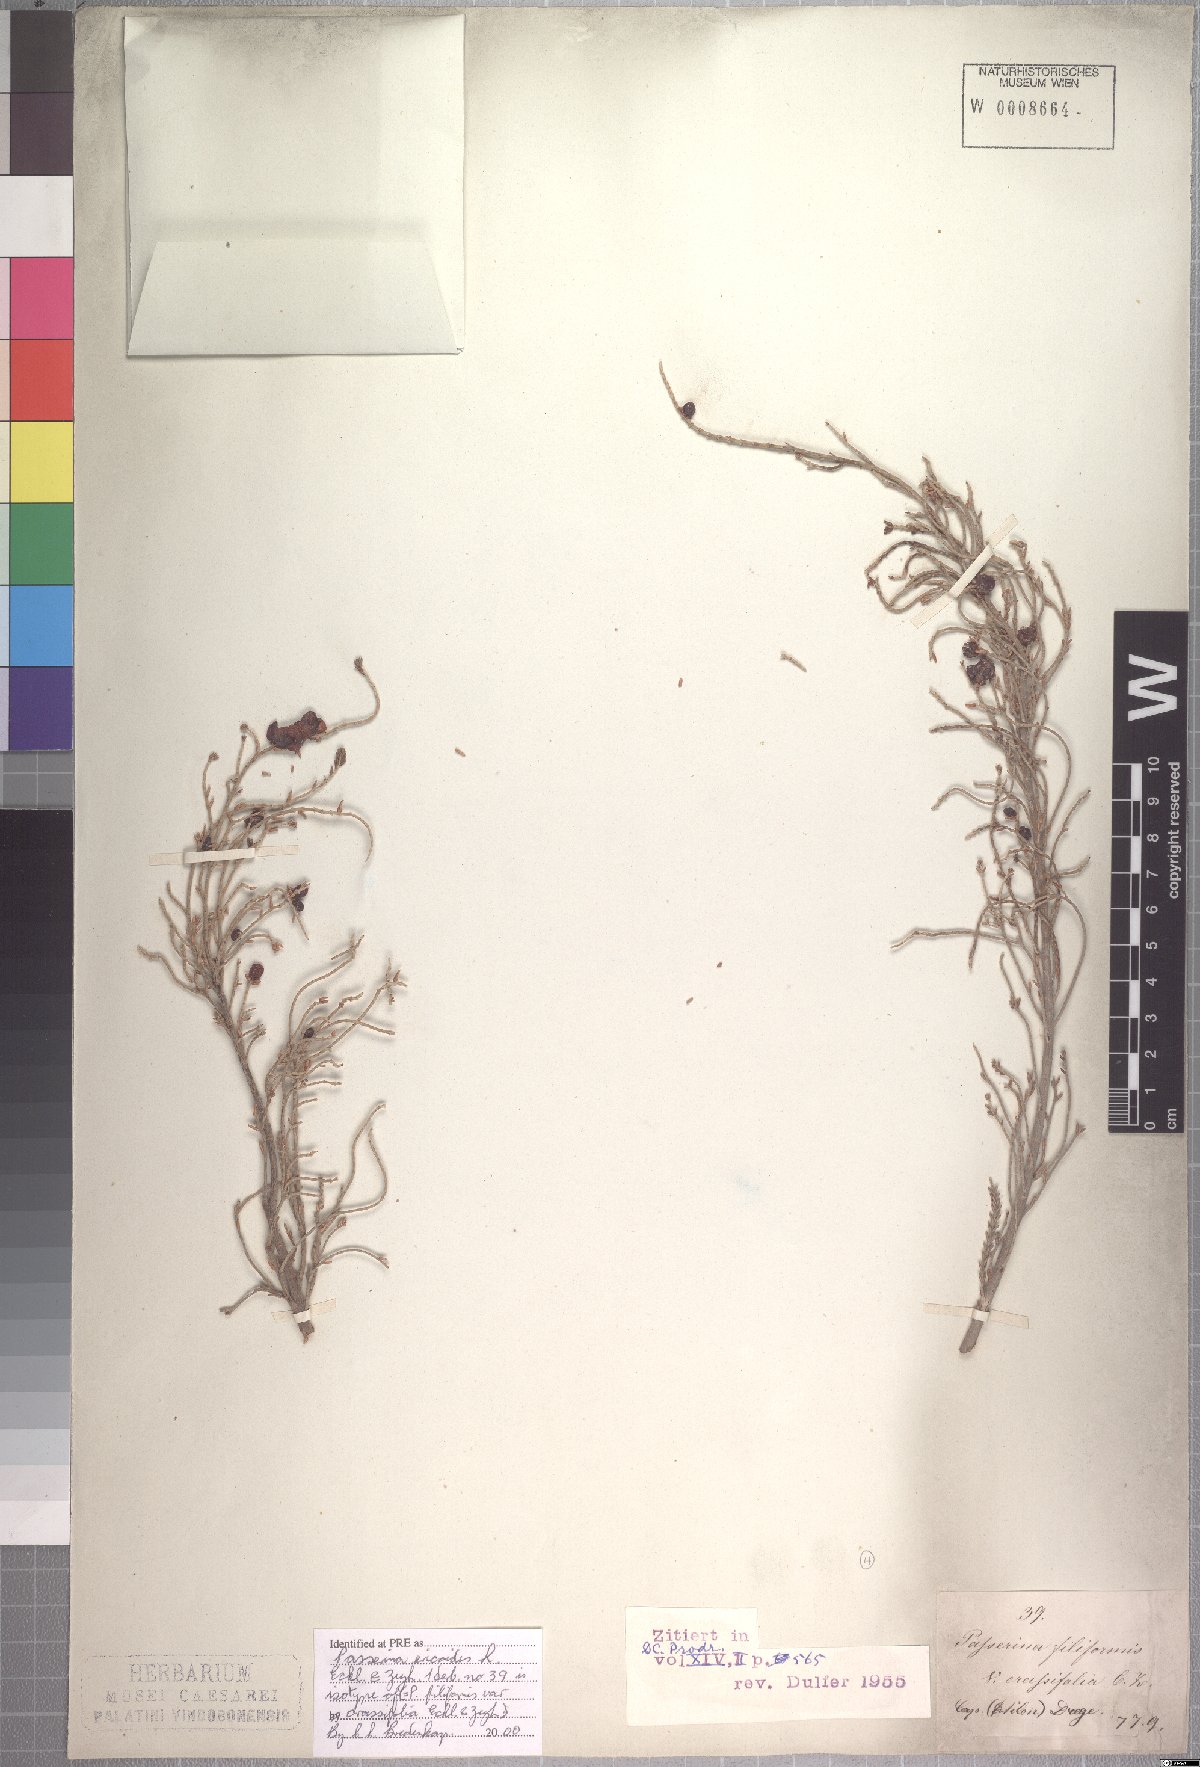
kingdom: Plantae
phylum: Tracheophyta
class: Magnoliopsida
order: Malvales
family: Thymelaeaceae
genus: Passerina
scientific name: Passerina ericoides
